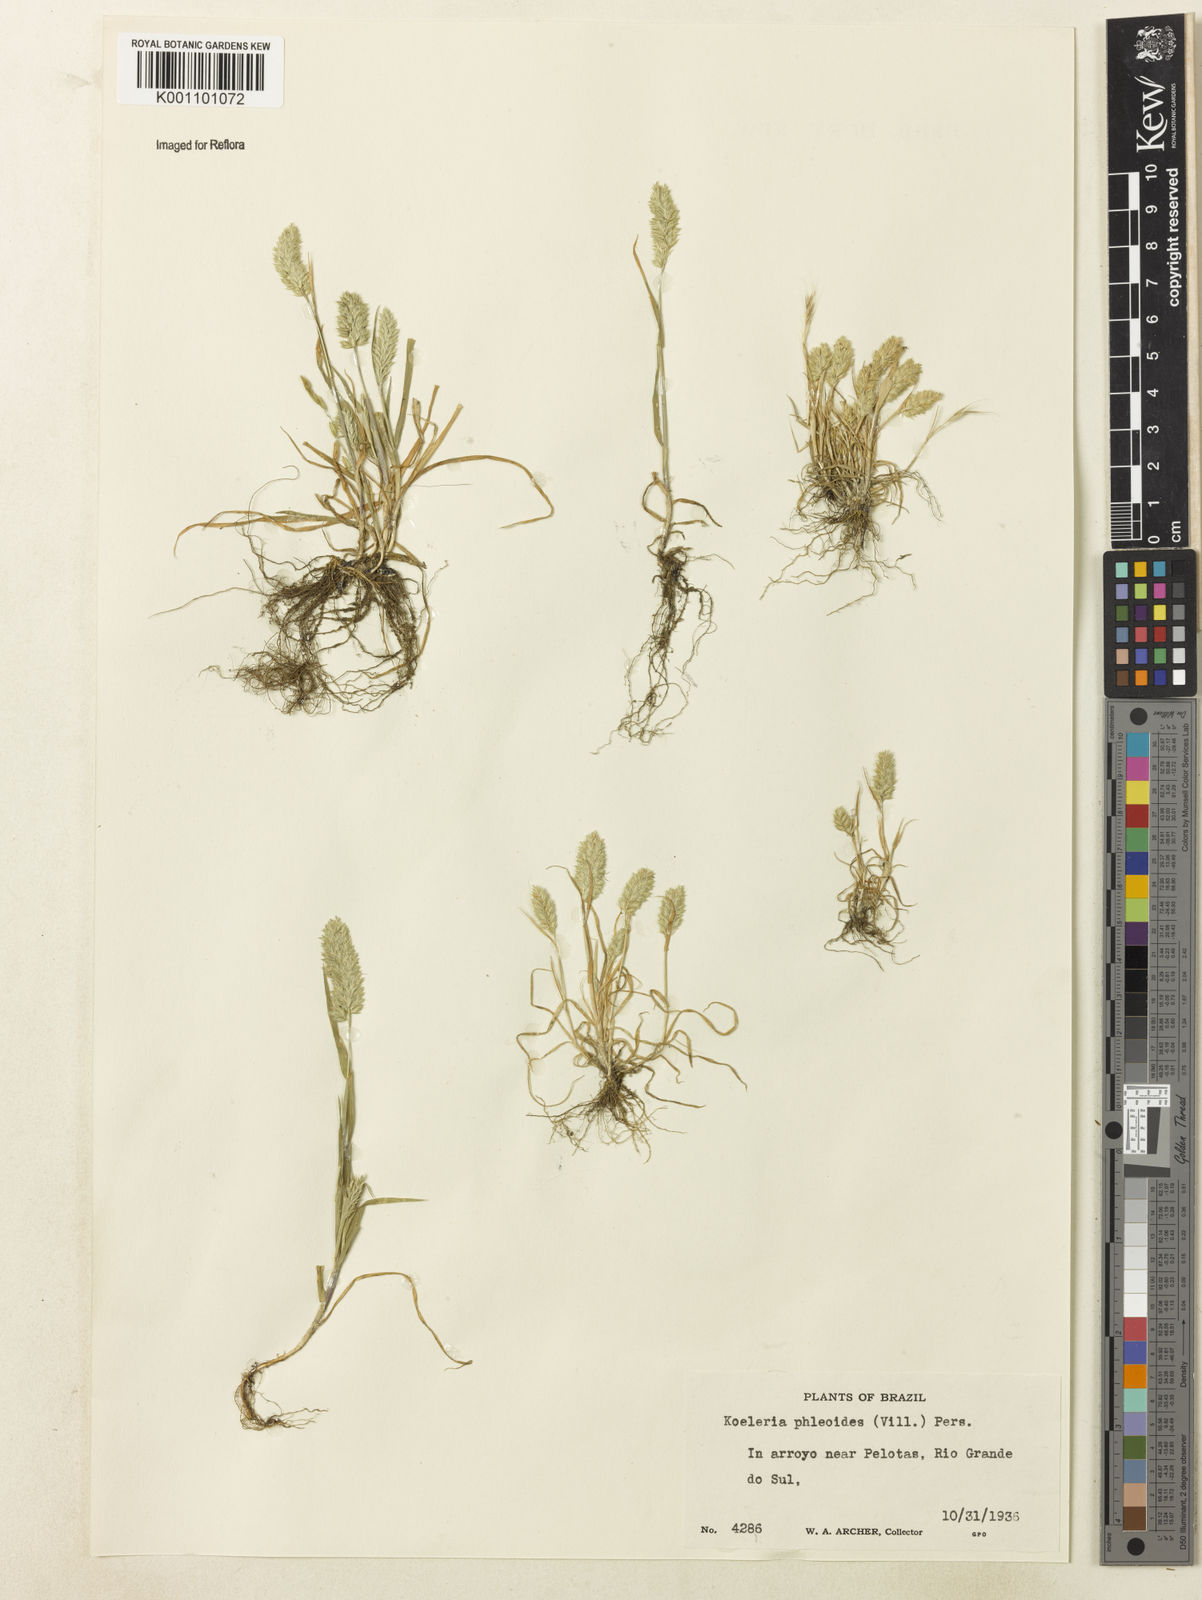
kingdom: Plantae
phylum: Tracheophyta
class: Liliopsida
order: Poales
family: Poaceae
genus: Rostraria
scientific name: Rostraria cristata
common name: Mediterranean hair-grass
